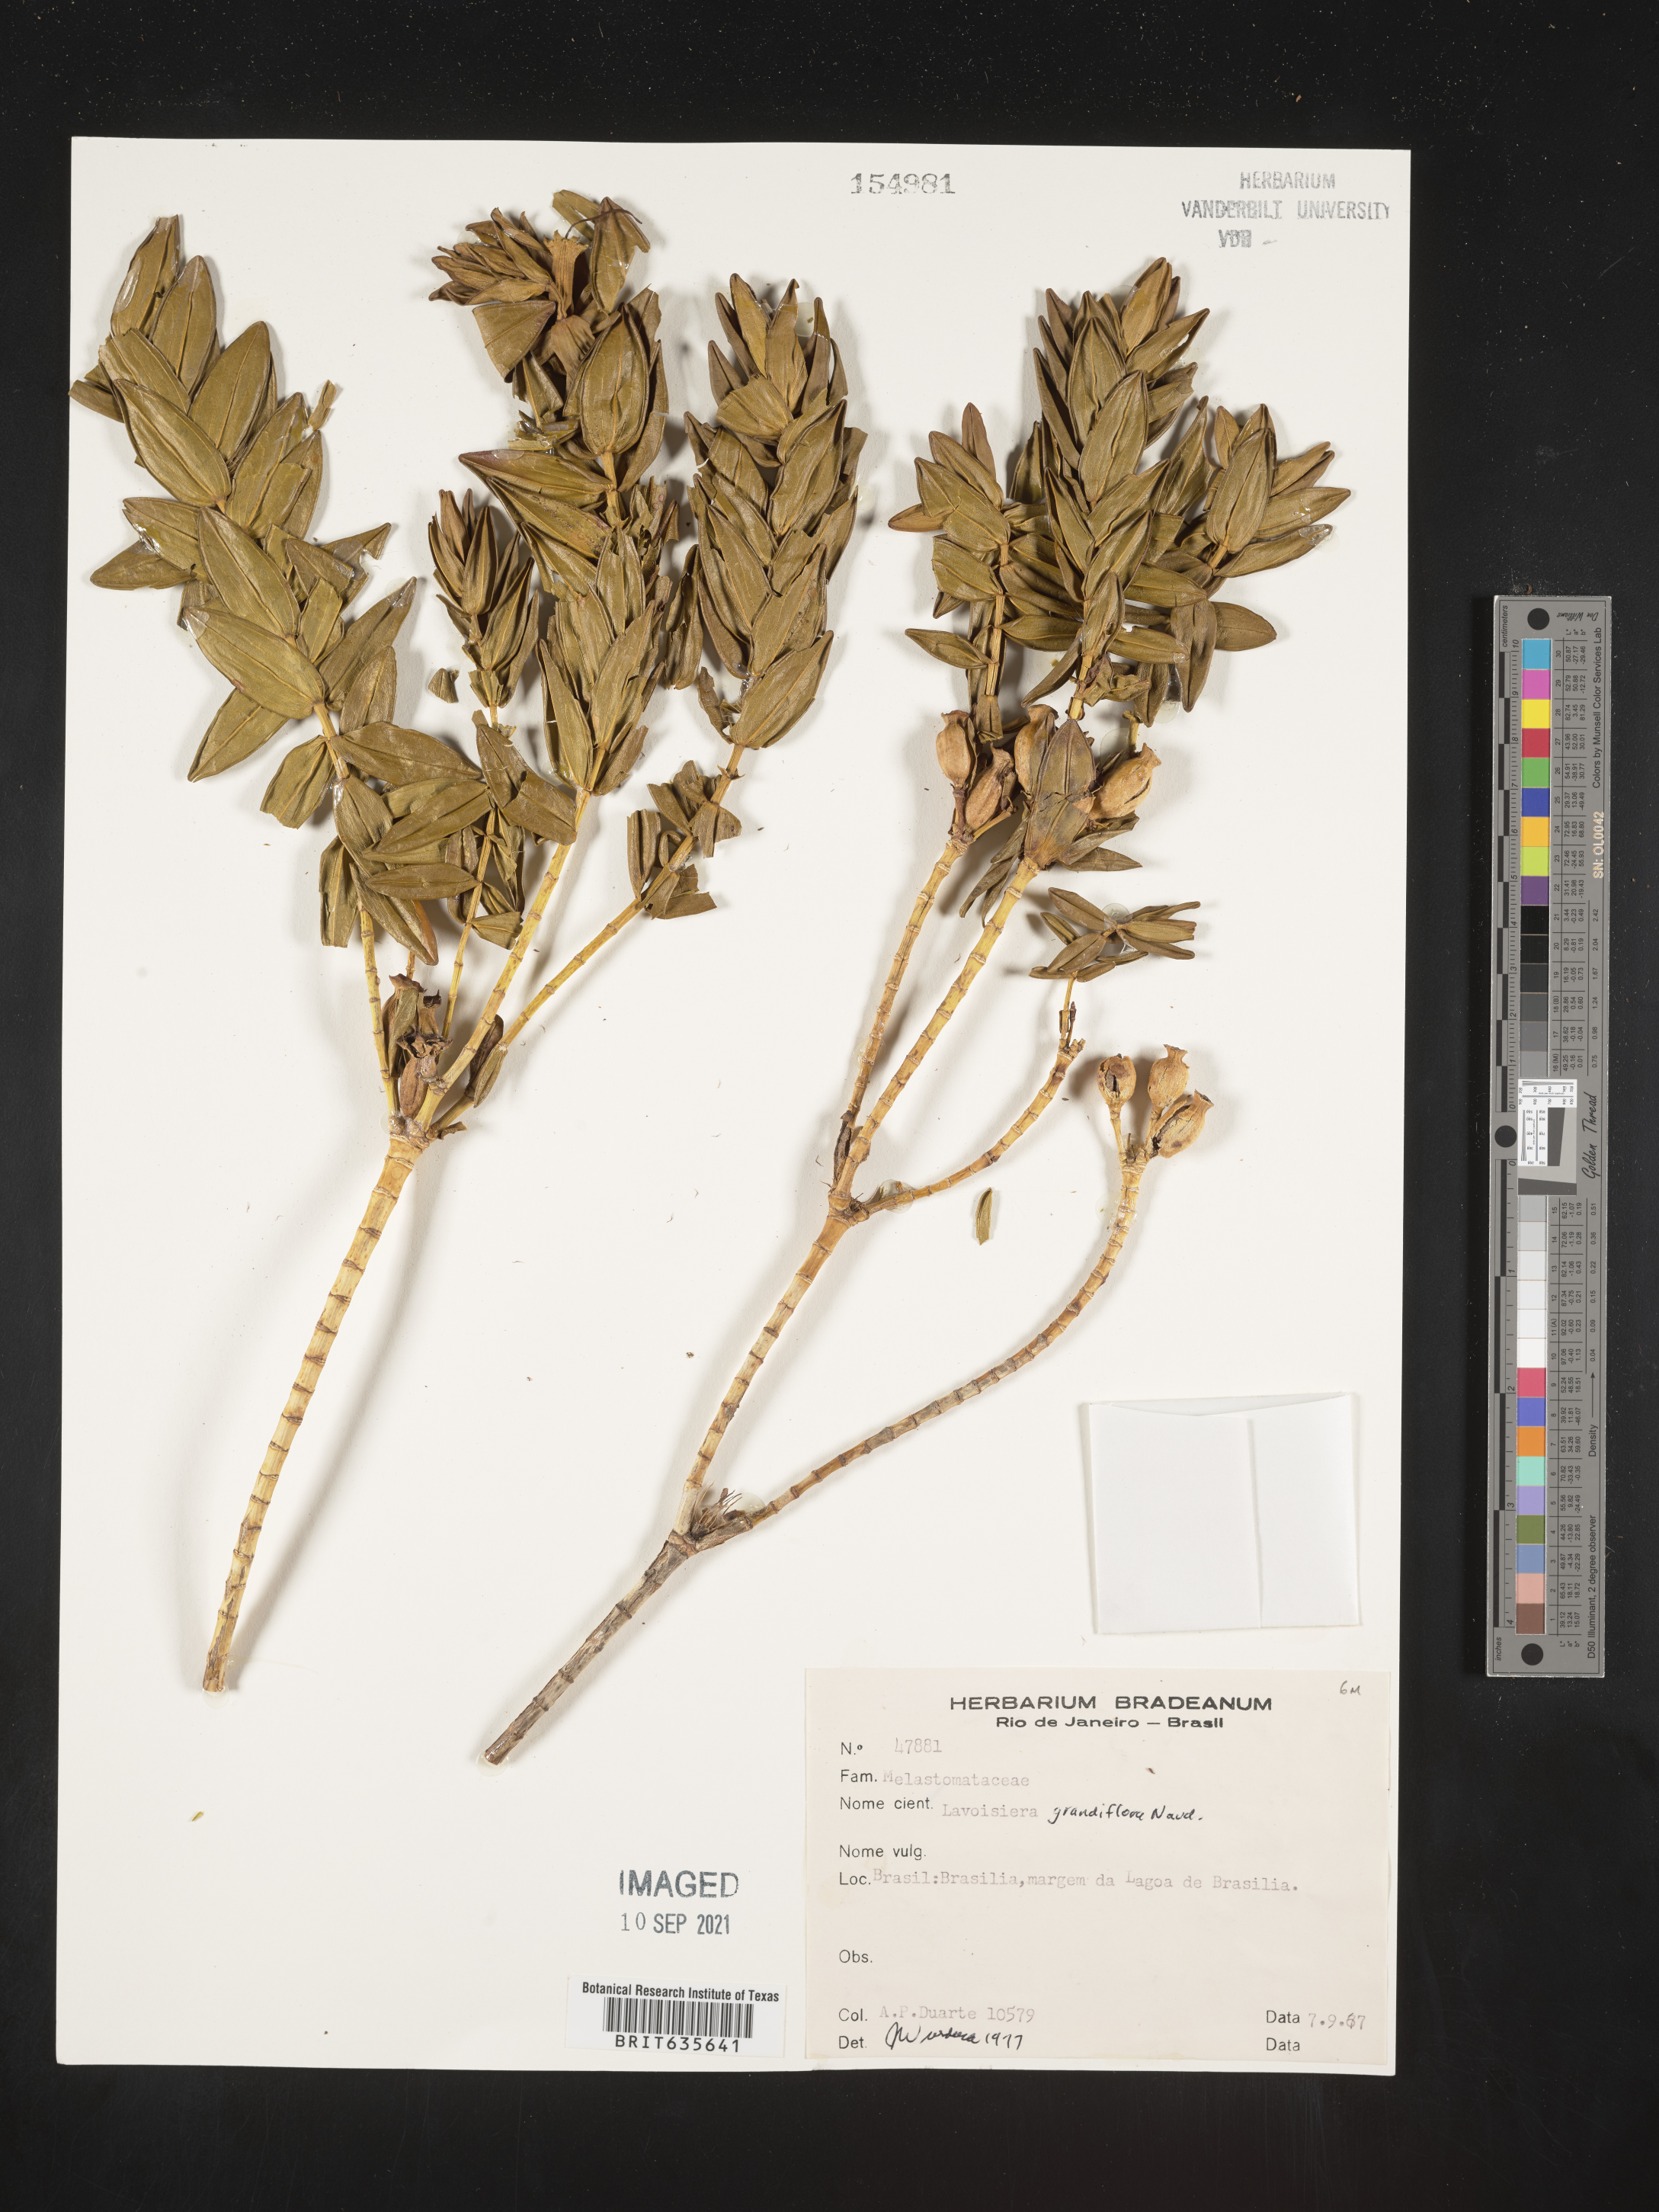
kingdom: Plantae
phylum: Tracheophyta
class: Magnoliopsida
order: Myrtales
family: Melastomataceae
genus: Microlicia
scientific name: Microlicia
